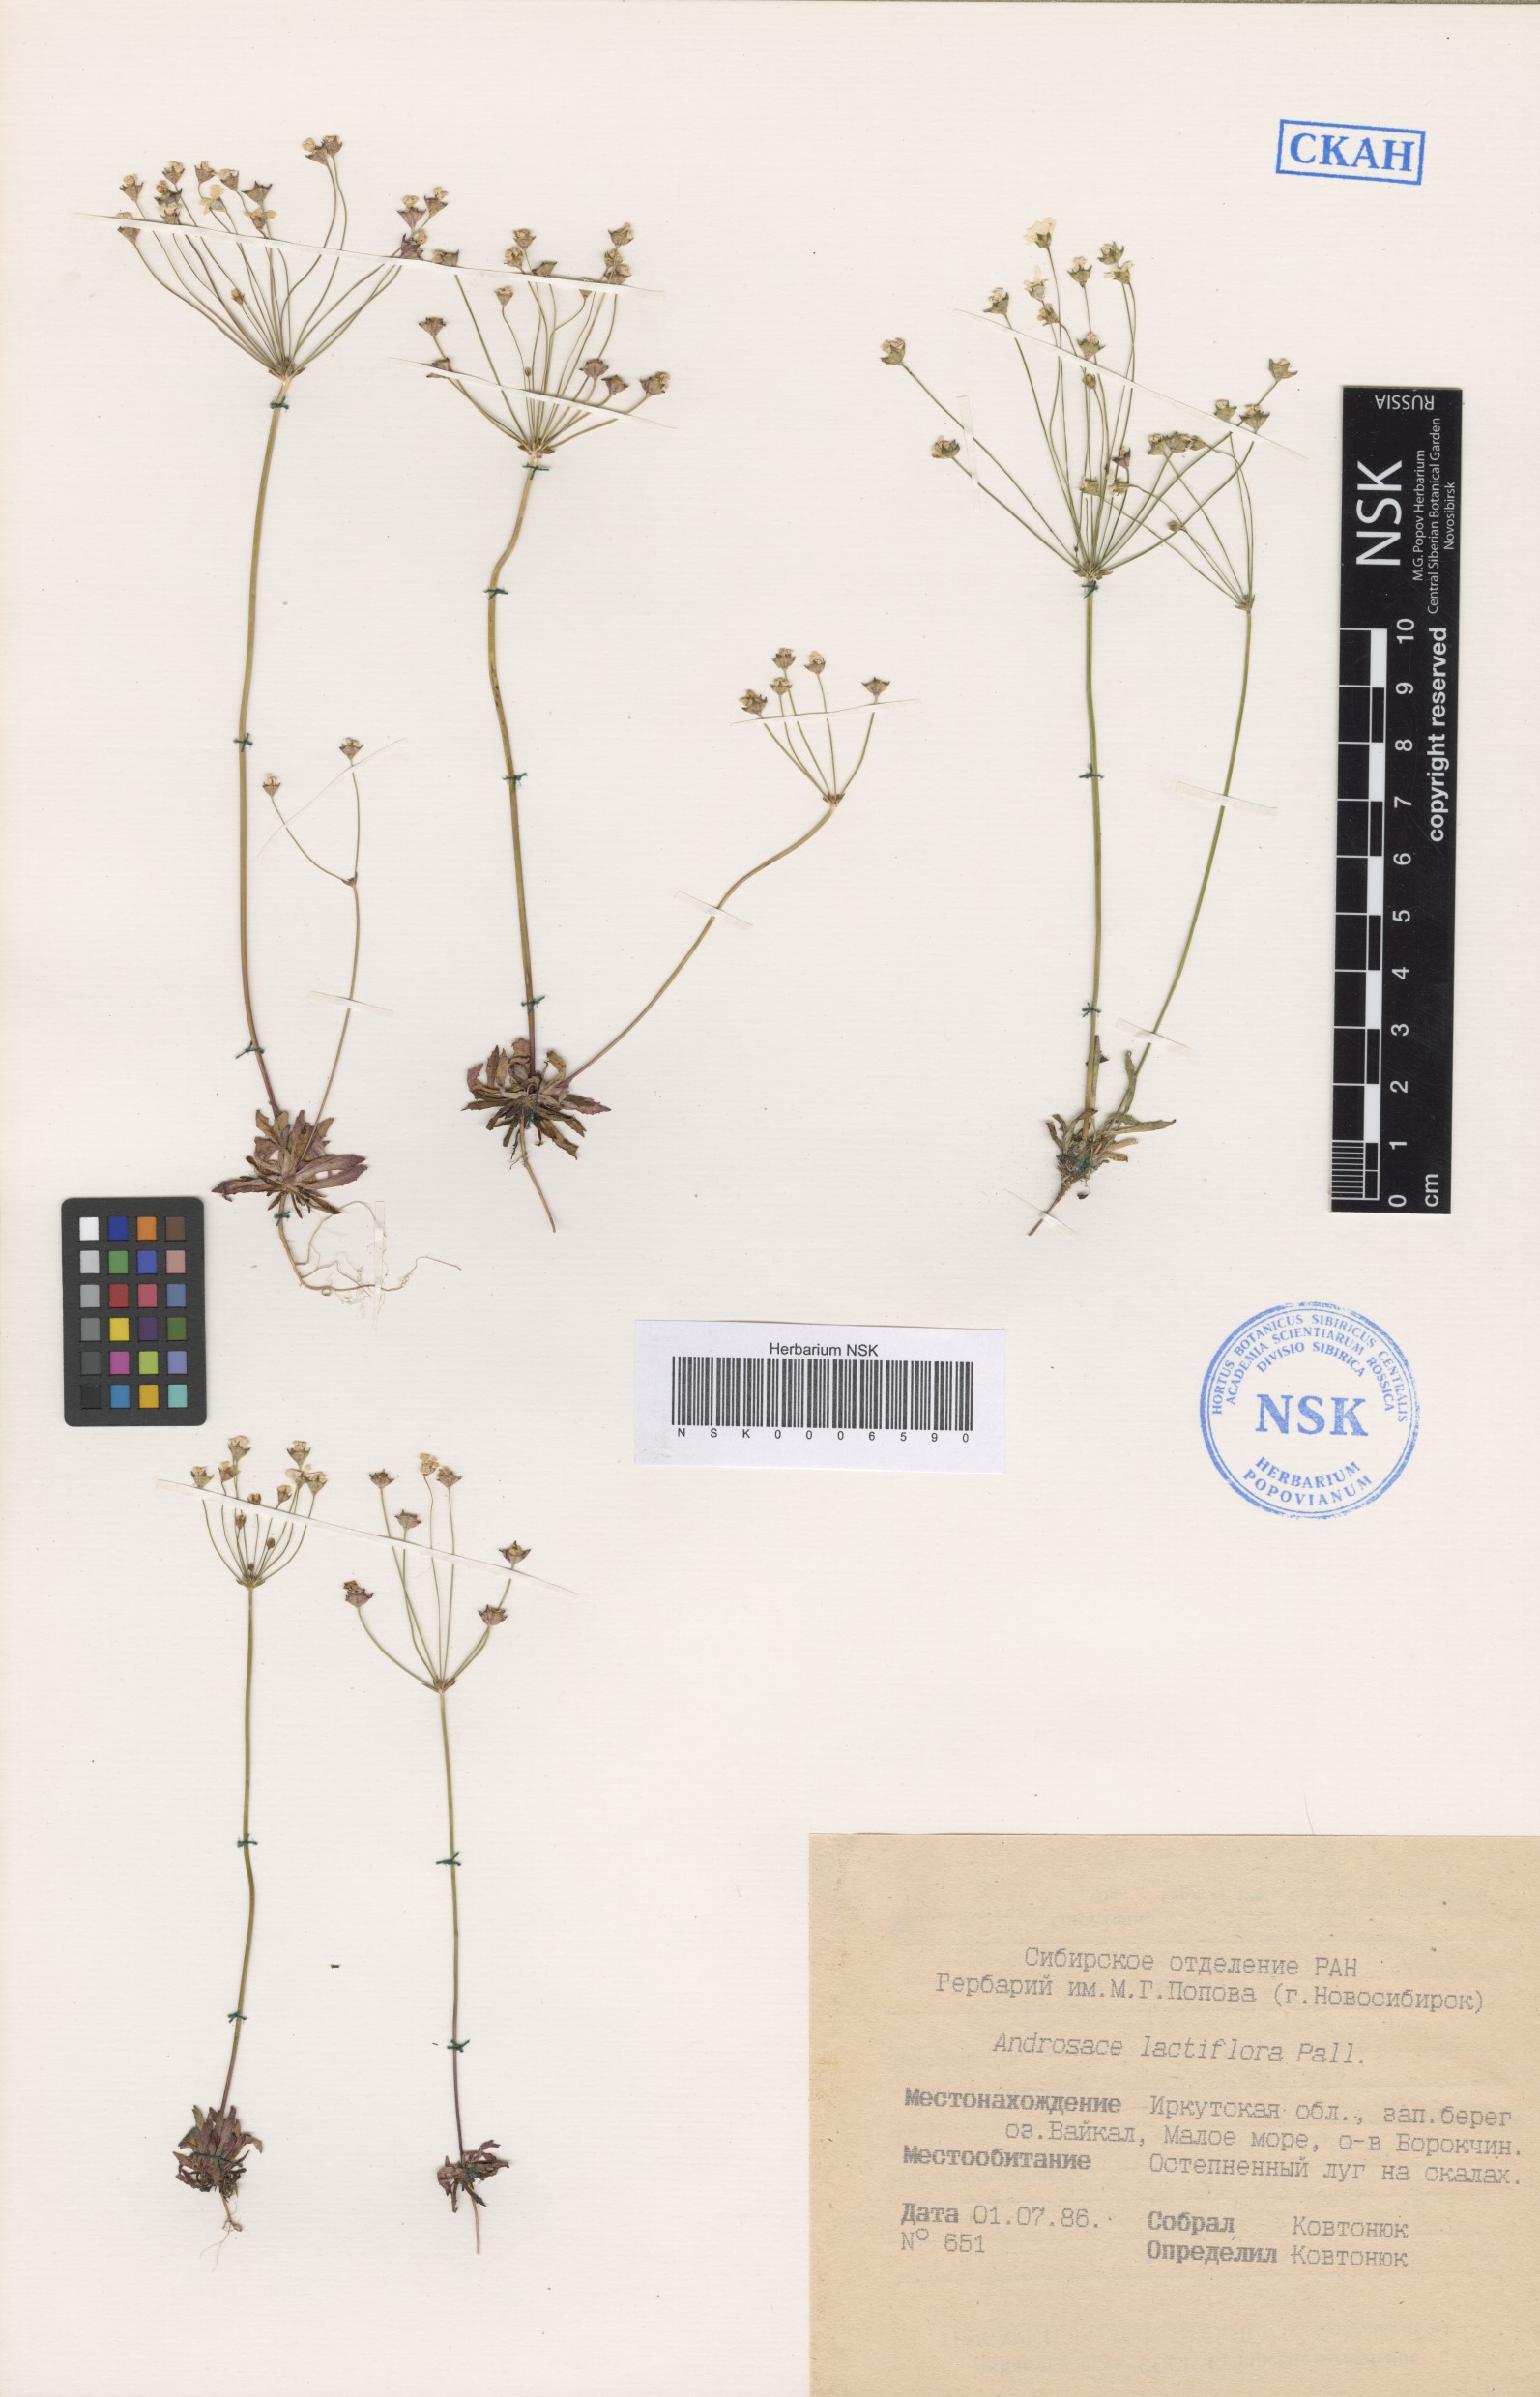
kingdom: Plantae
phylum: Tracheophyta
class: Magnoliopsida
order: Ericales
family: Primulaceae
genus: Androsace
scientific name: Androsace lactiflora
